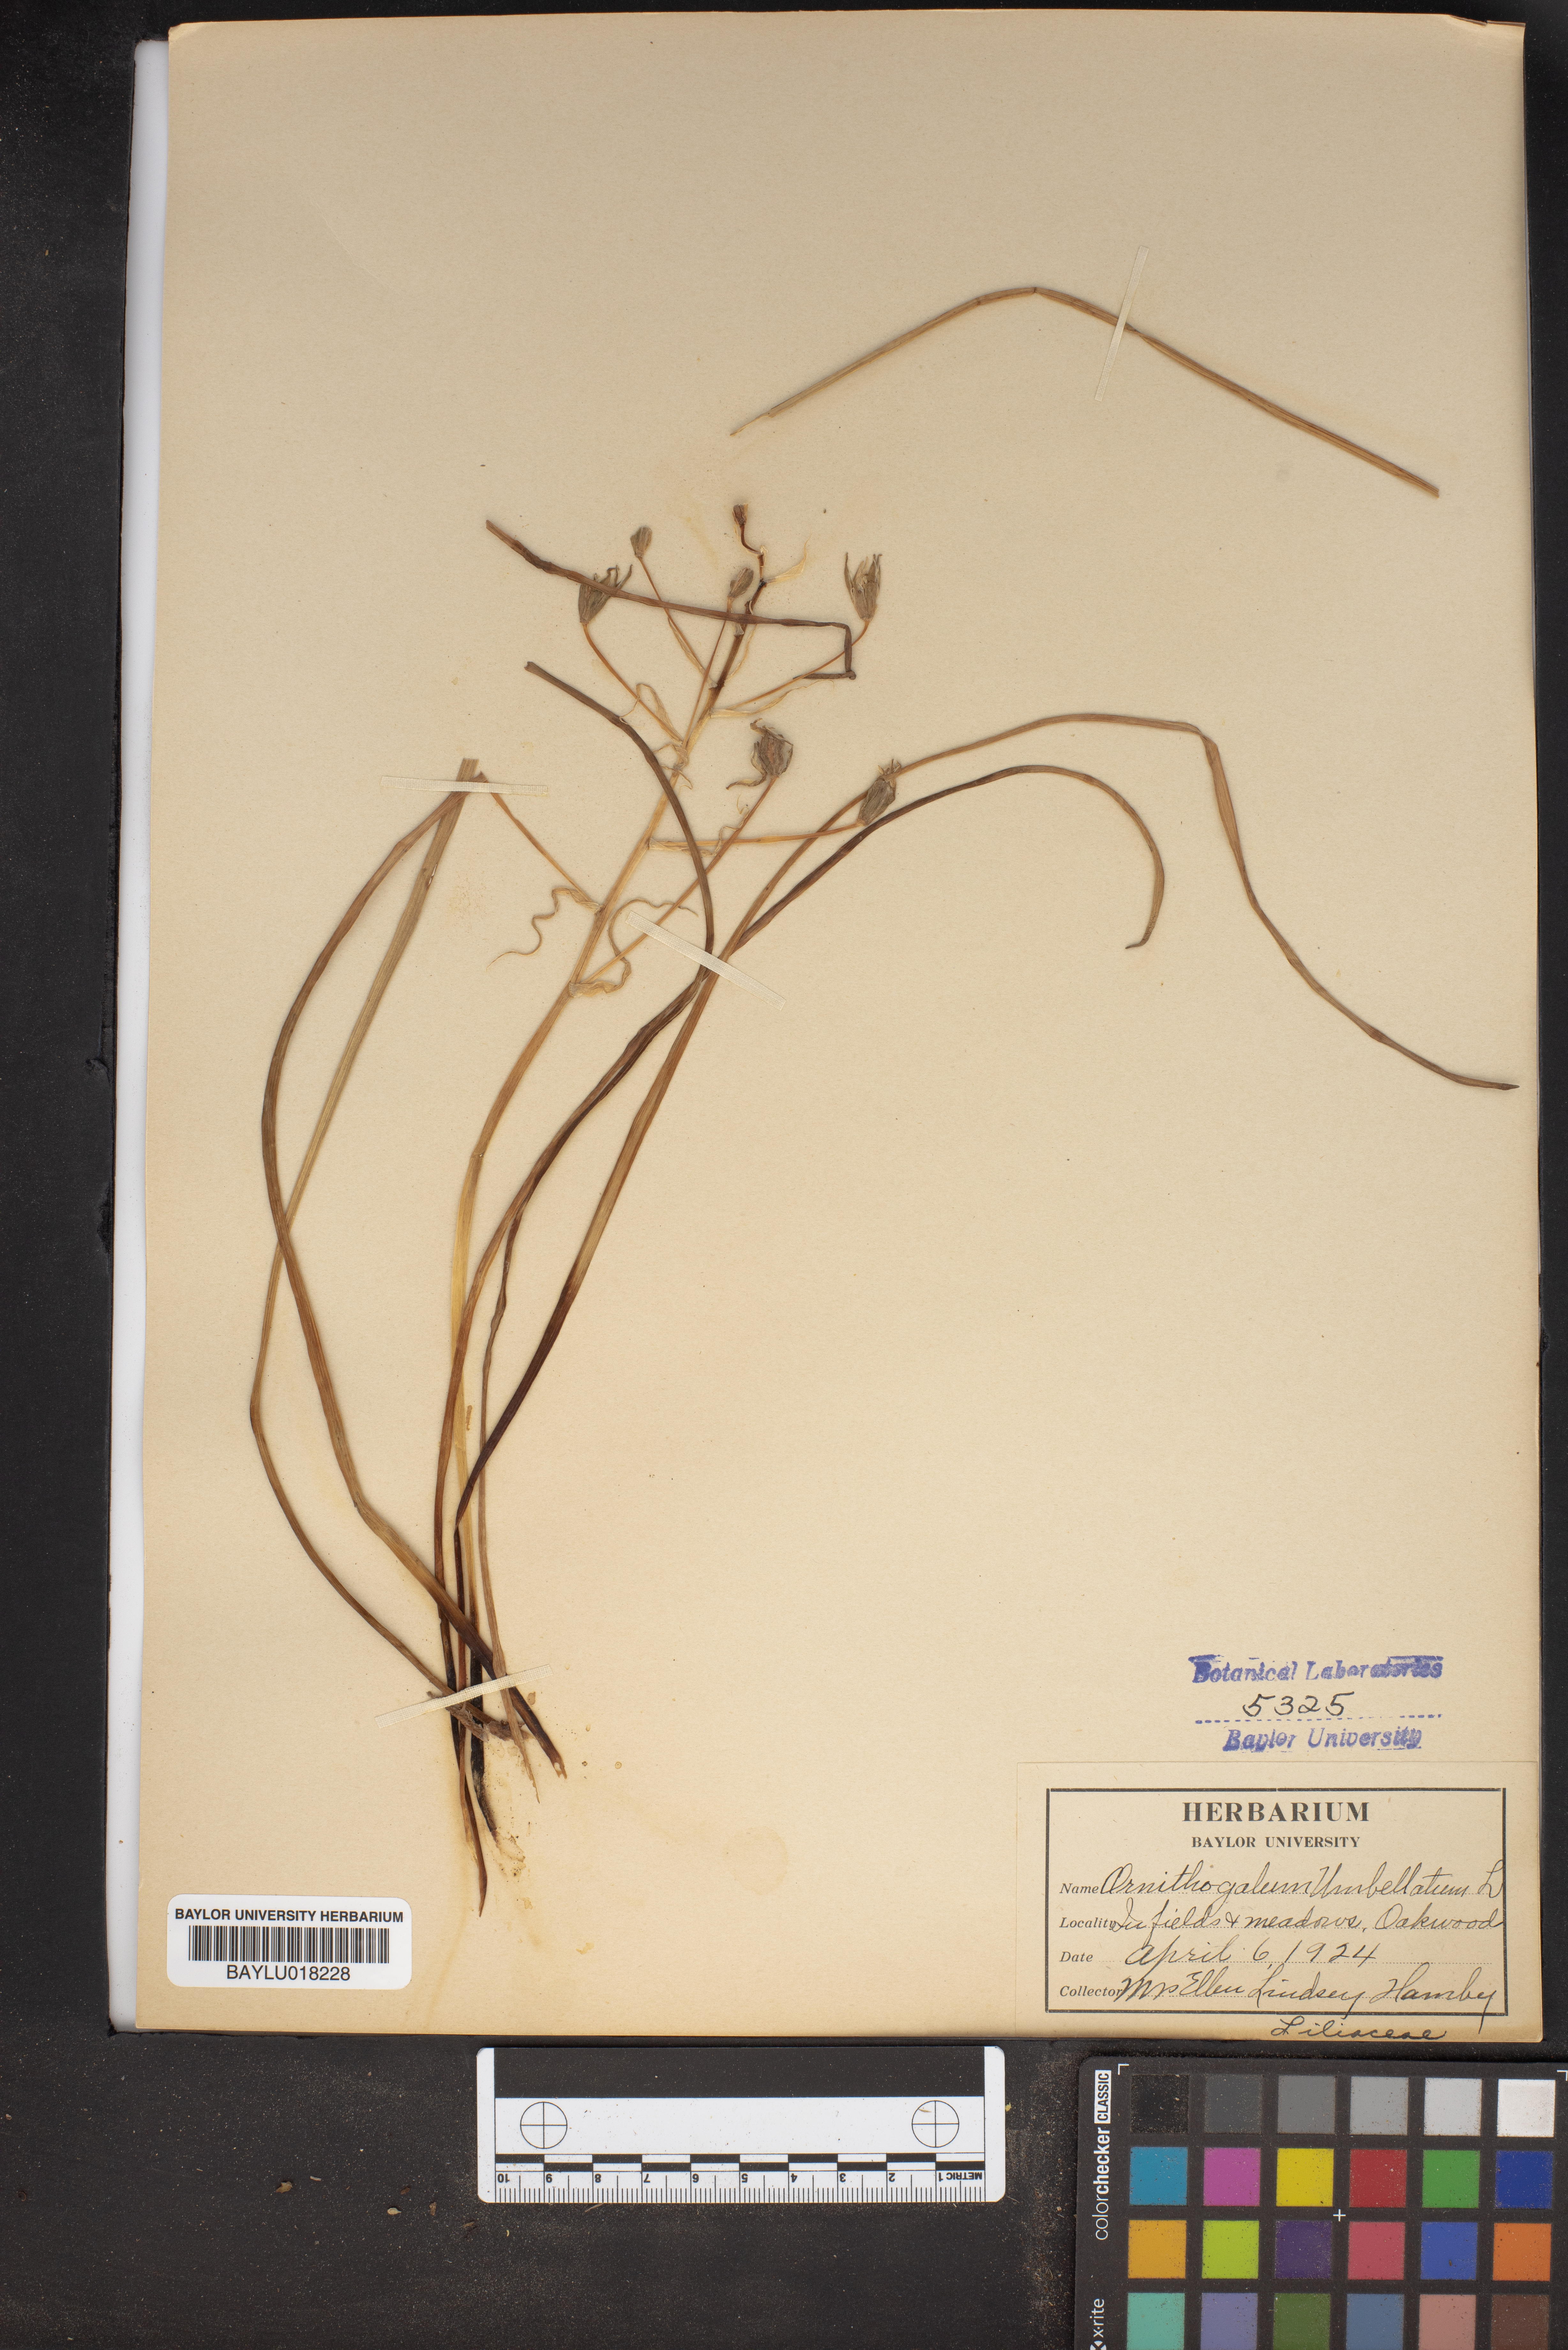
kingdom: Plantae
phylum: Tracheophyta
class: Liliopsida
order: Asparagales
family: Asparagaceae
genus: Ornithogalum
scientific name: Ornithogalum umbellatum
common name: Garden star-of-bethlehem
